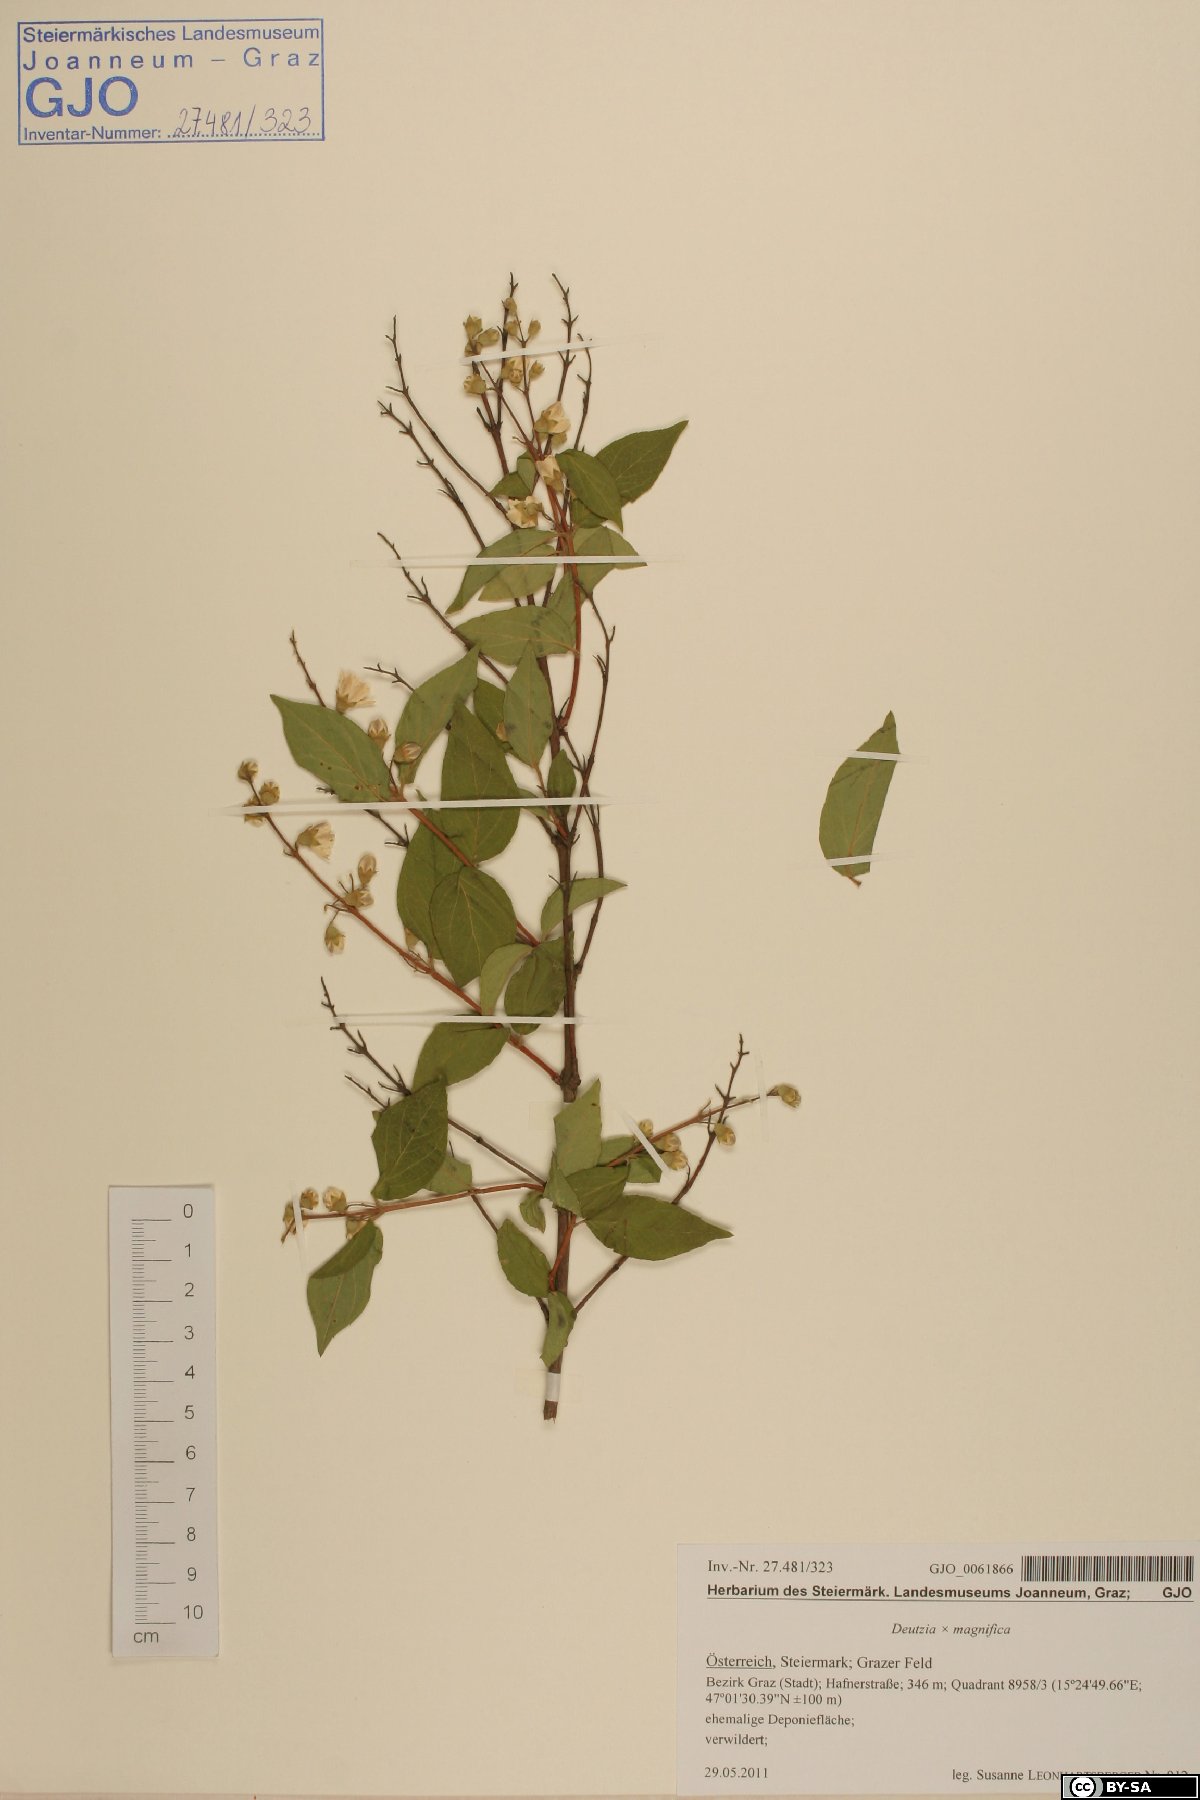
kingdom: Plantae
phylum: Tracheophyta
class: Magnoliopsida
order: Cornales
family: Hydrangeaceae
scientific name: Hydrangeaceae
